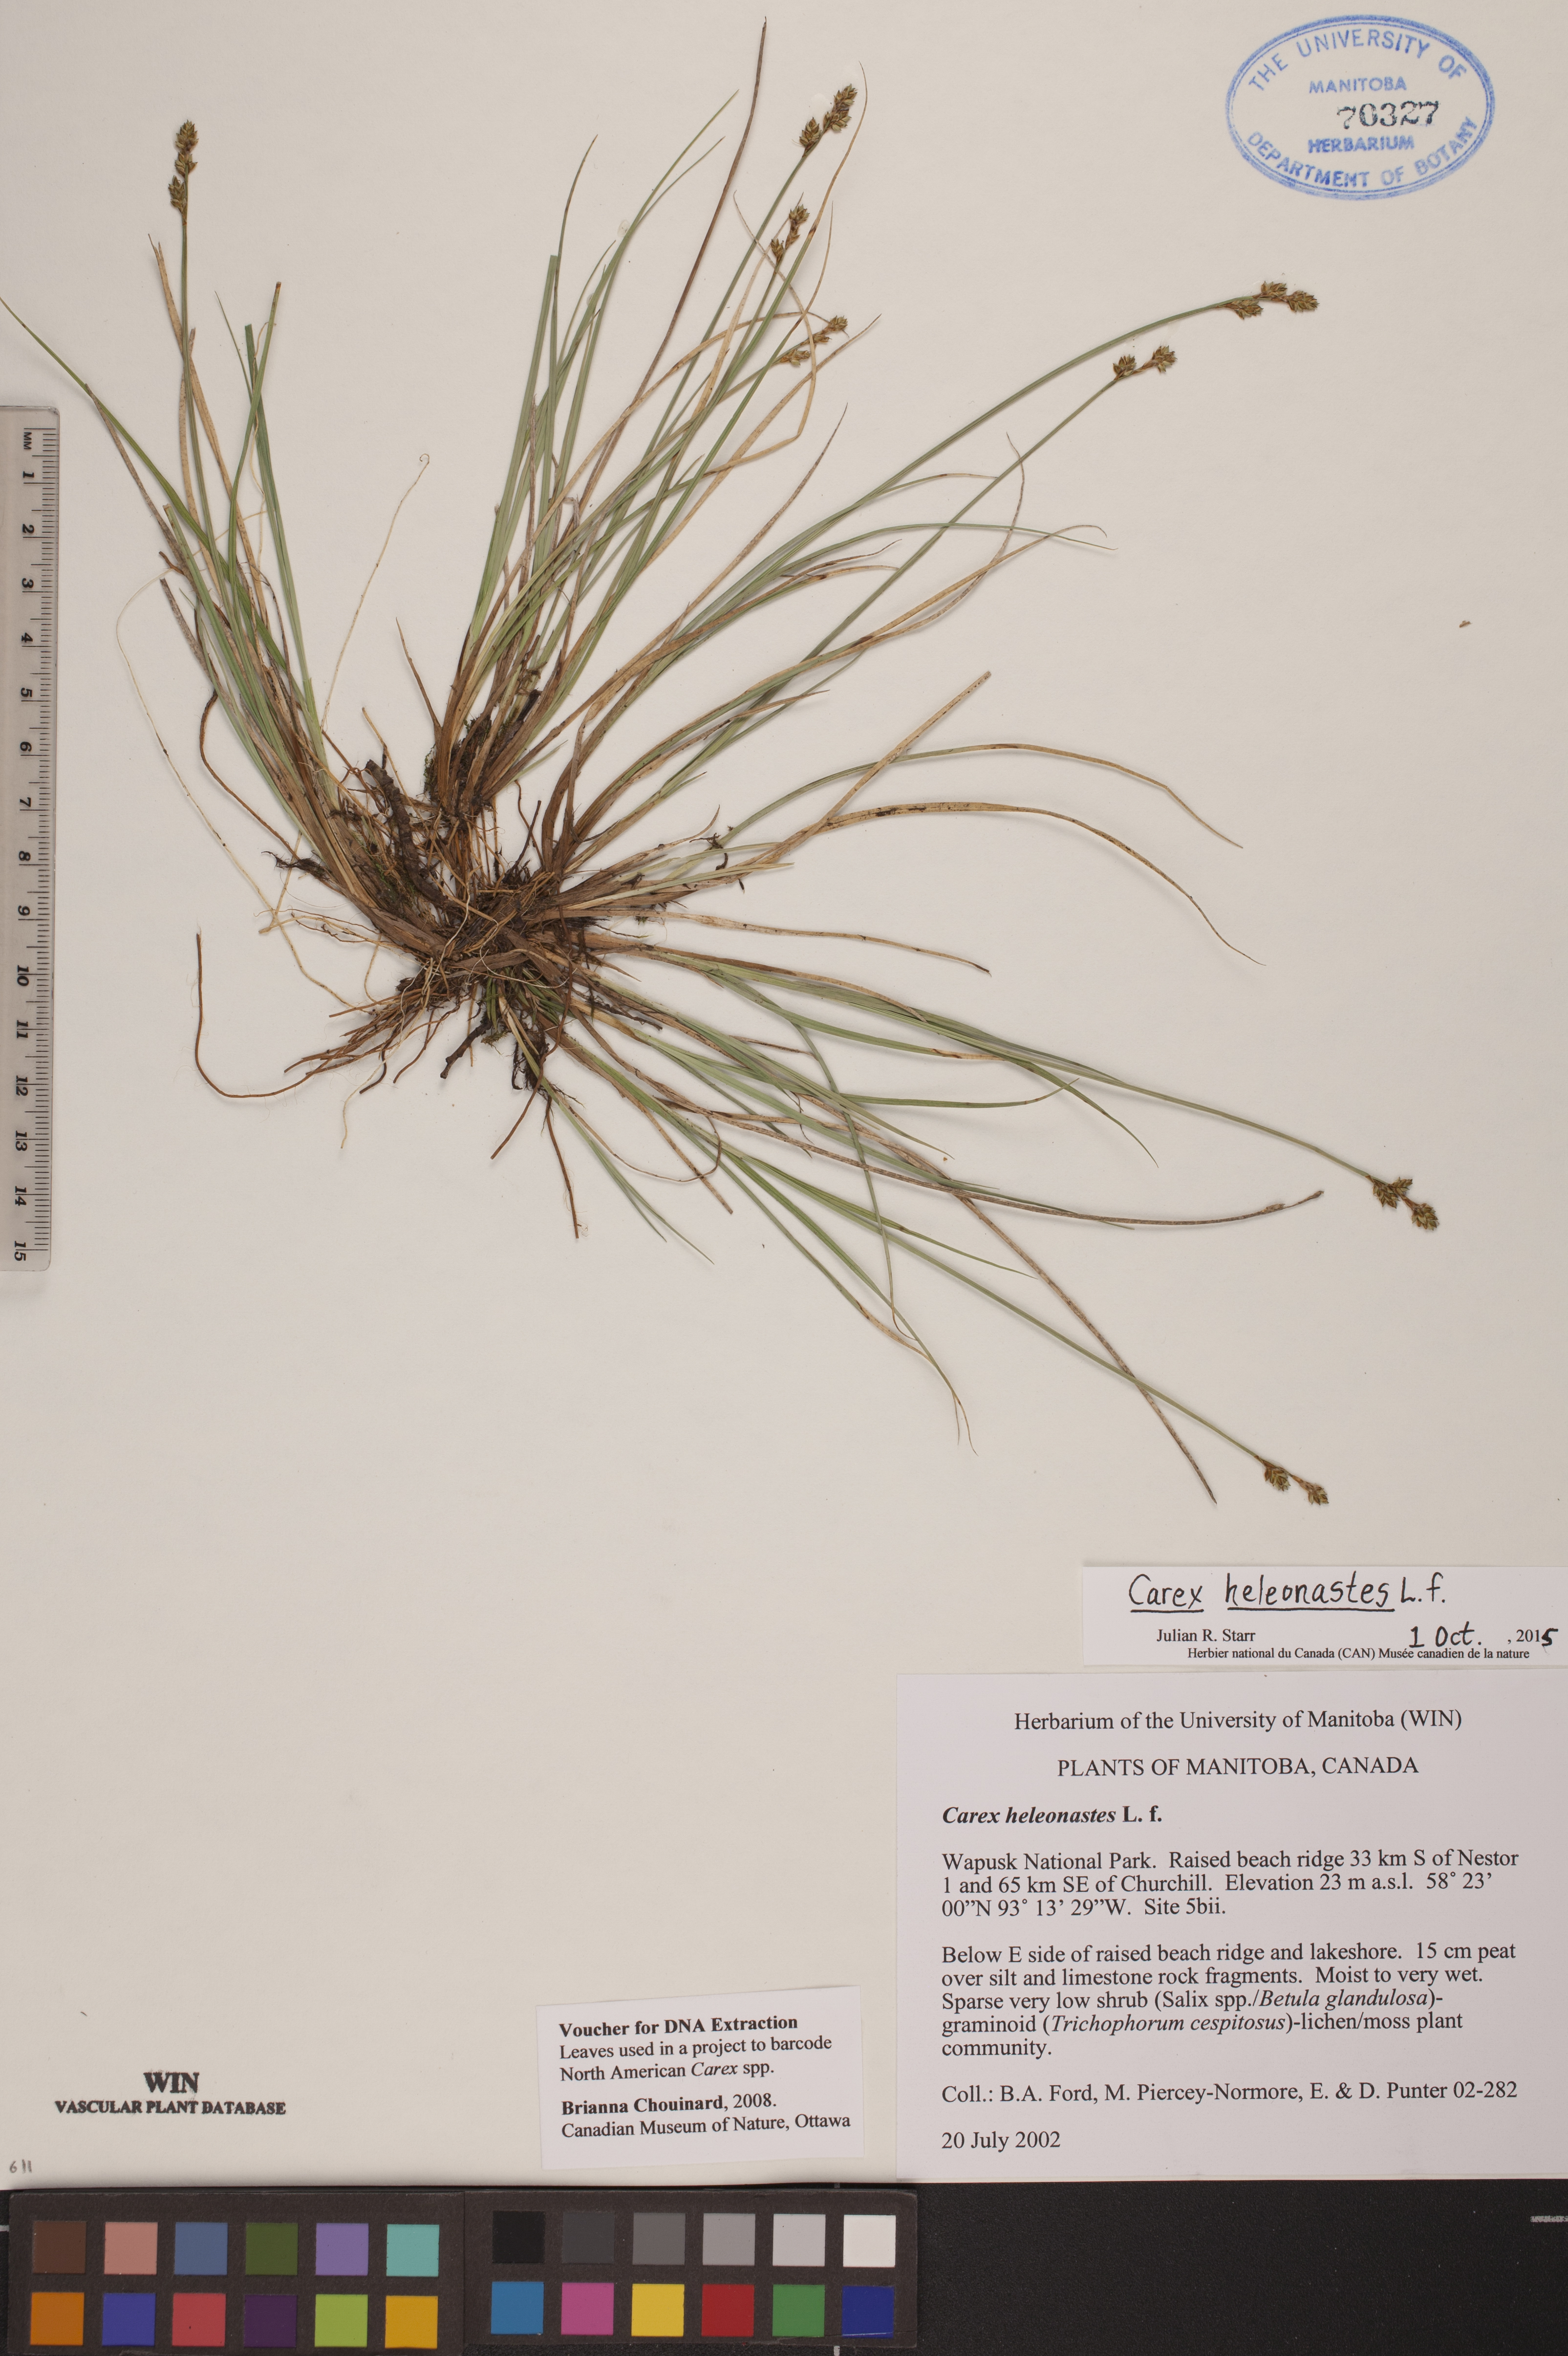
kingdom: Plantae
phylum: Tracheophyta
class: Liliopsida
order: Poales
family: Cyperaceae
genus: Carex
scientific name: Carex heleonastes
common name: Hudson bay sedge
